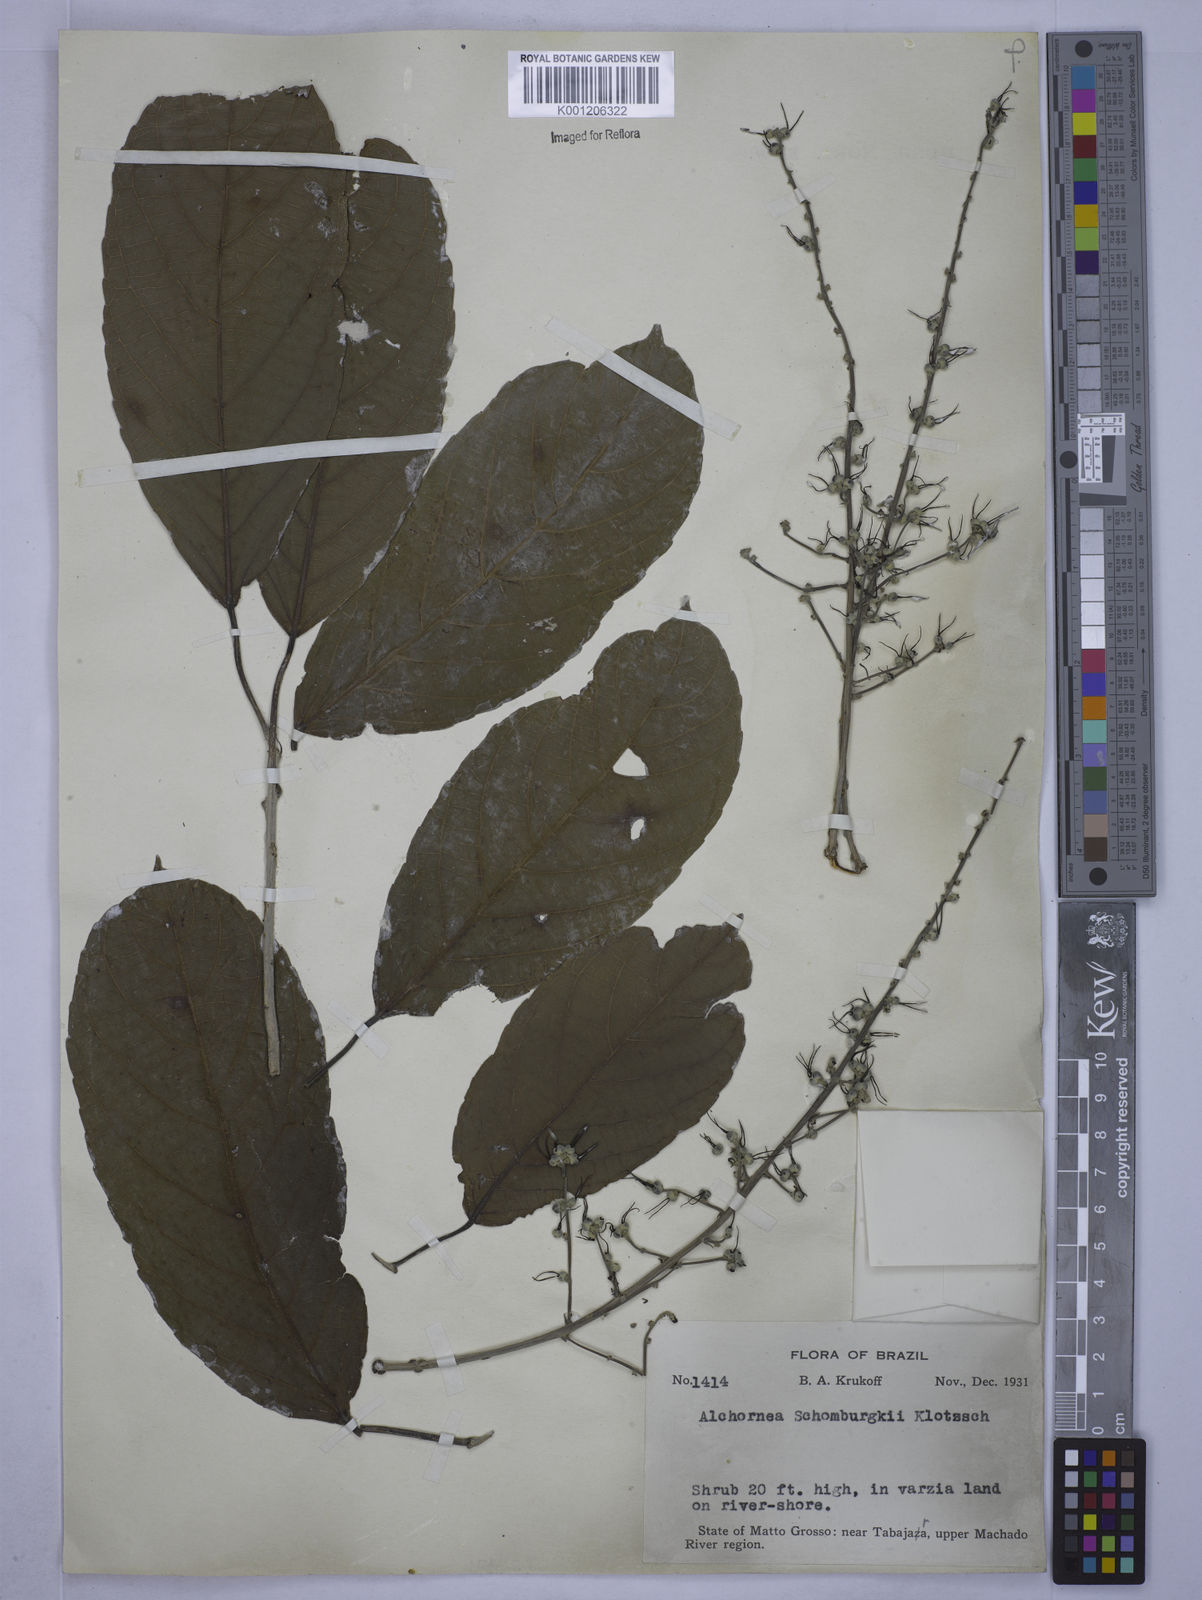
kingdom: Plantae
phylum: Tracheophyta
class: Magnoliopsida
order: Malpighiales
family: Euphorbiaceae
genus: Alchornea
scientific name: Alchornea discolor
